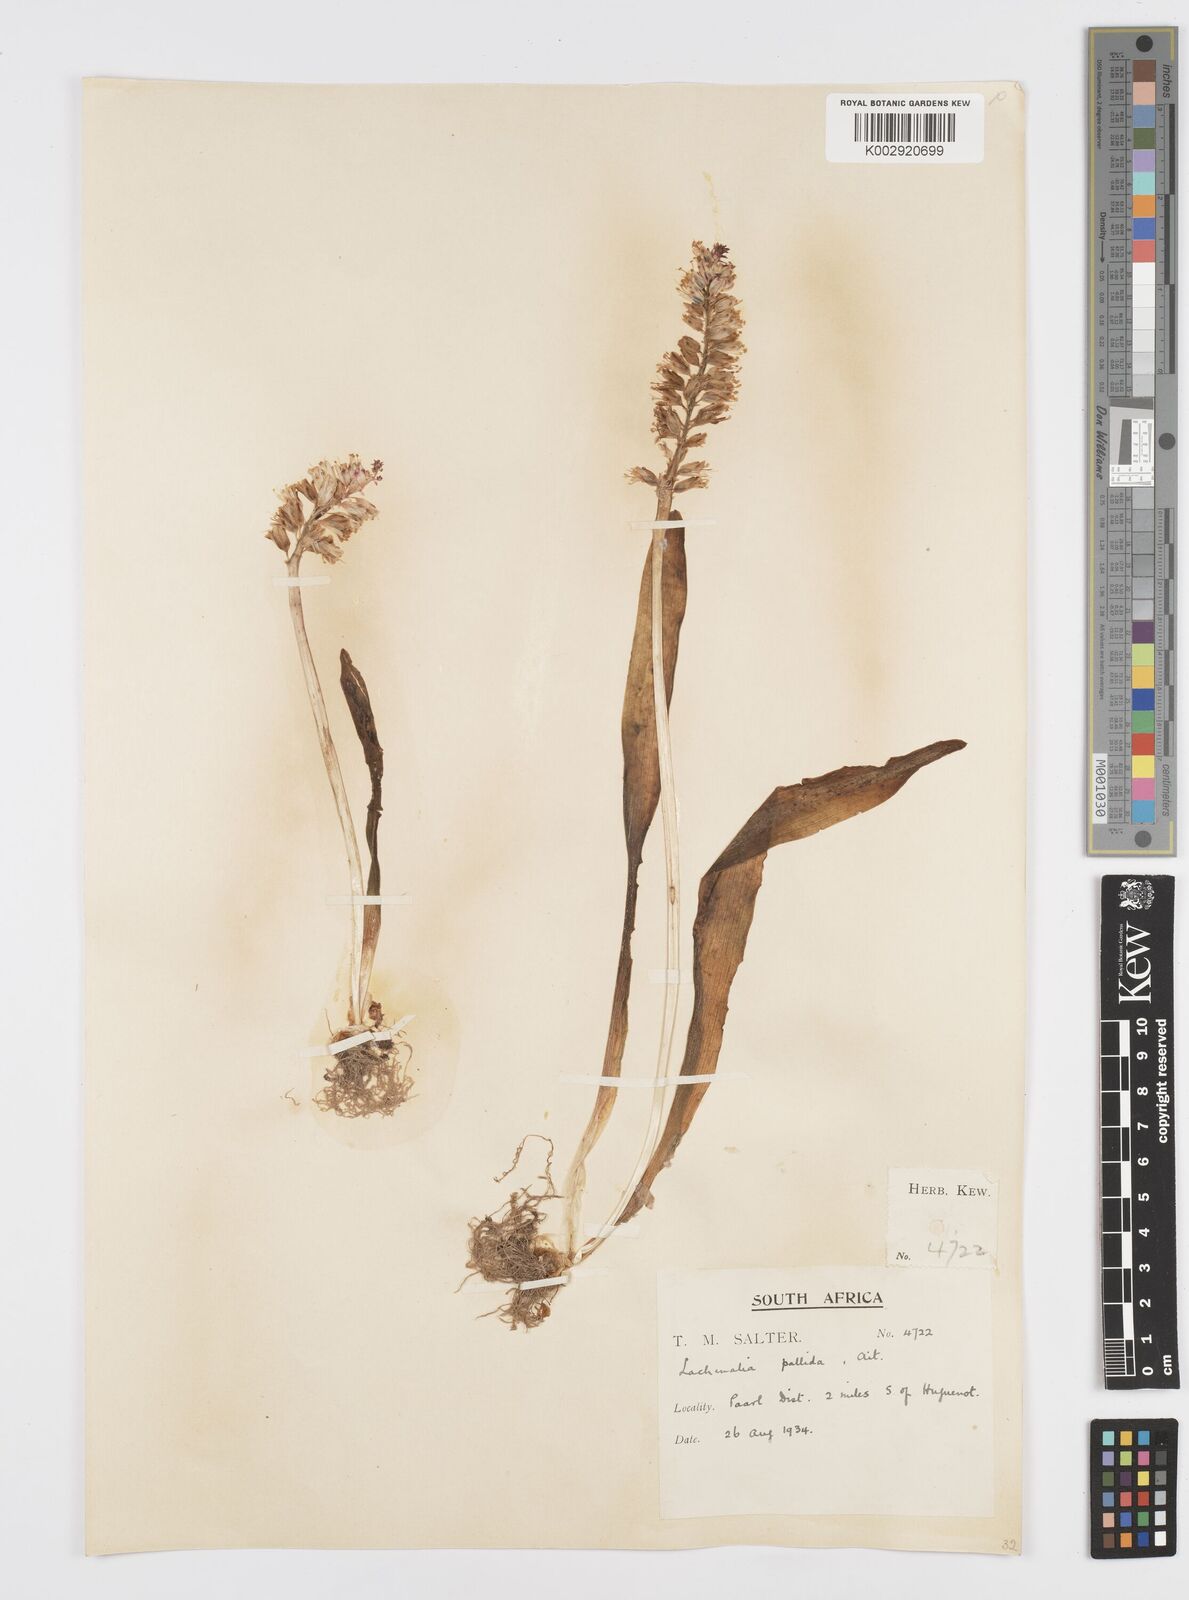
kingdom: Plantae
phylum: Tracheophyta
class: Liliopsida
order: Asparagales
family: Asparagaceae
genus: Lachenalia
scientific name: Lachenalia pallida
